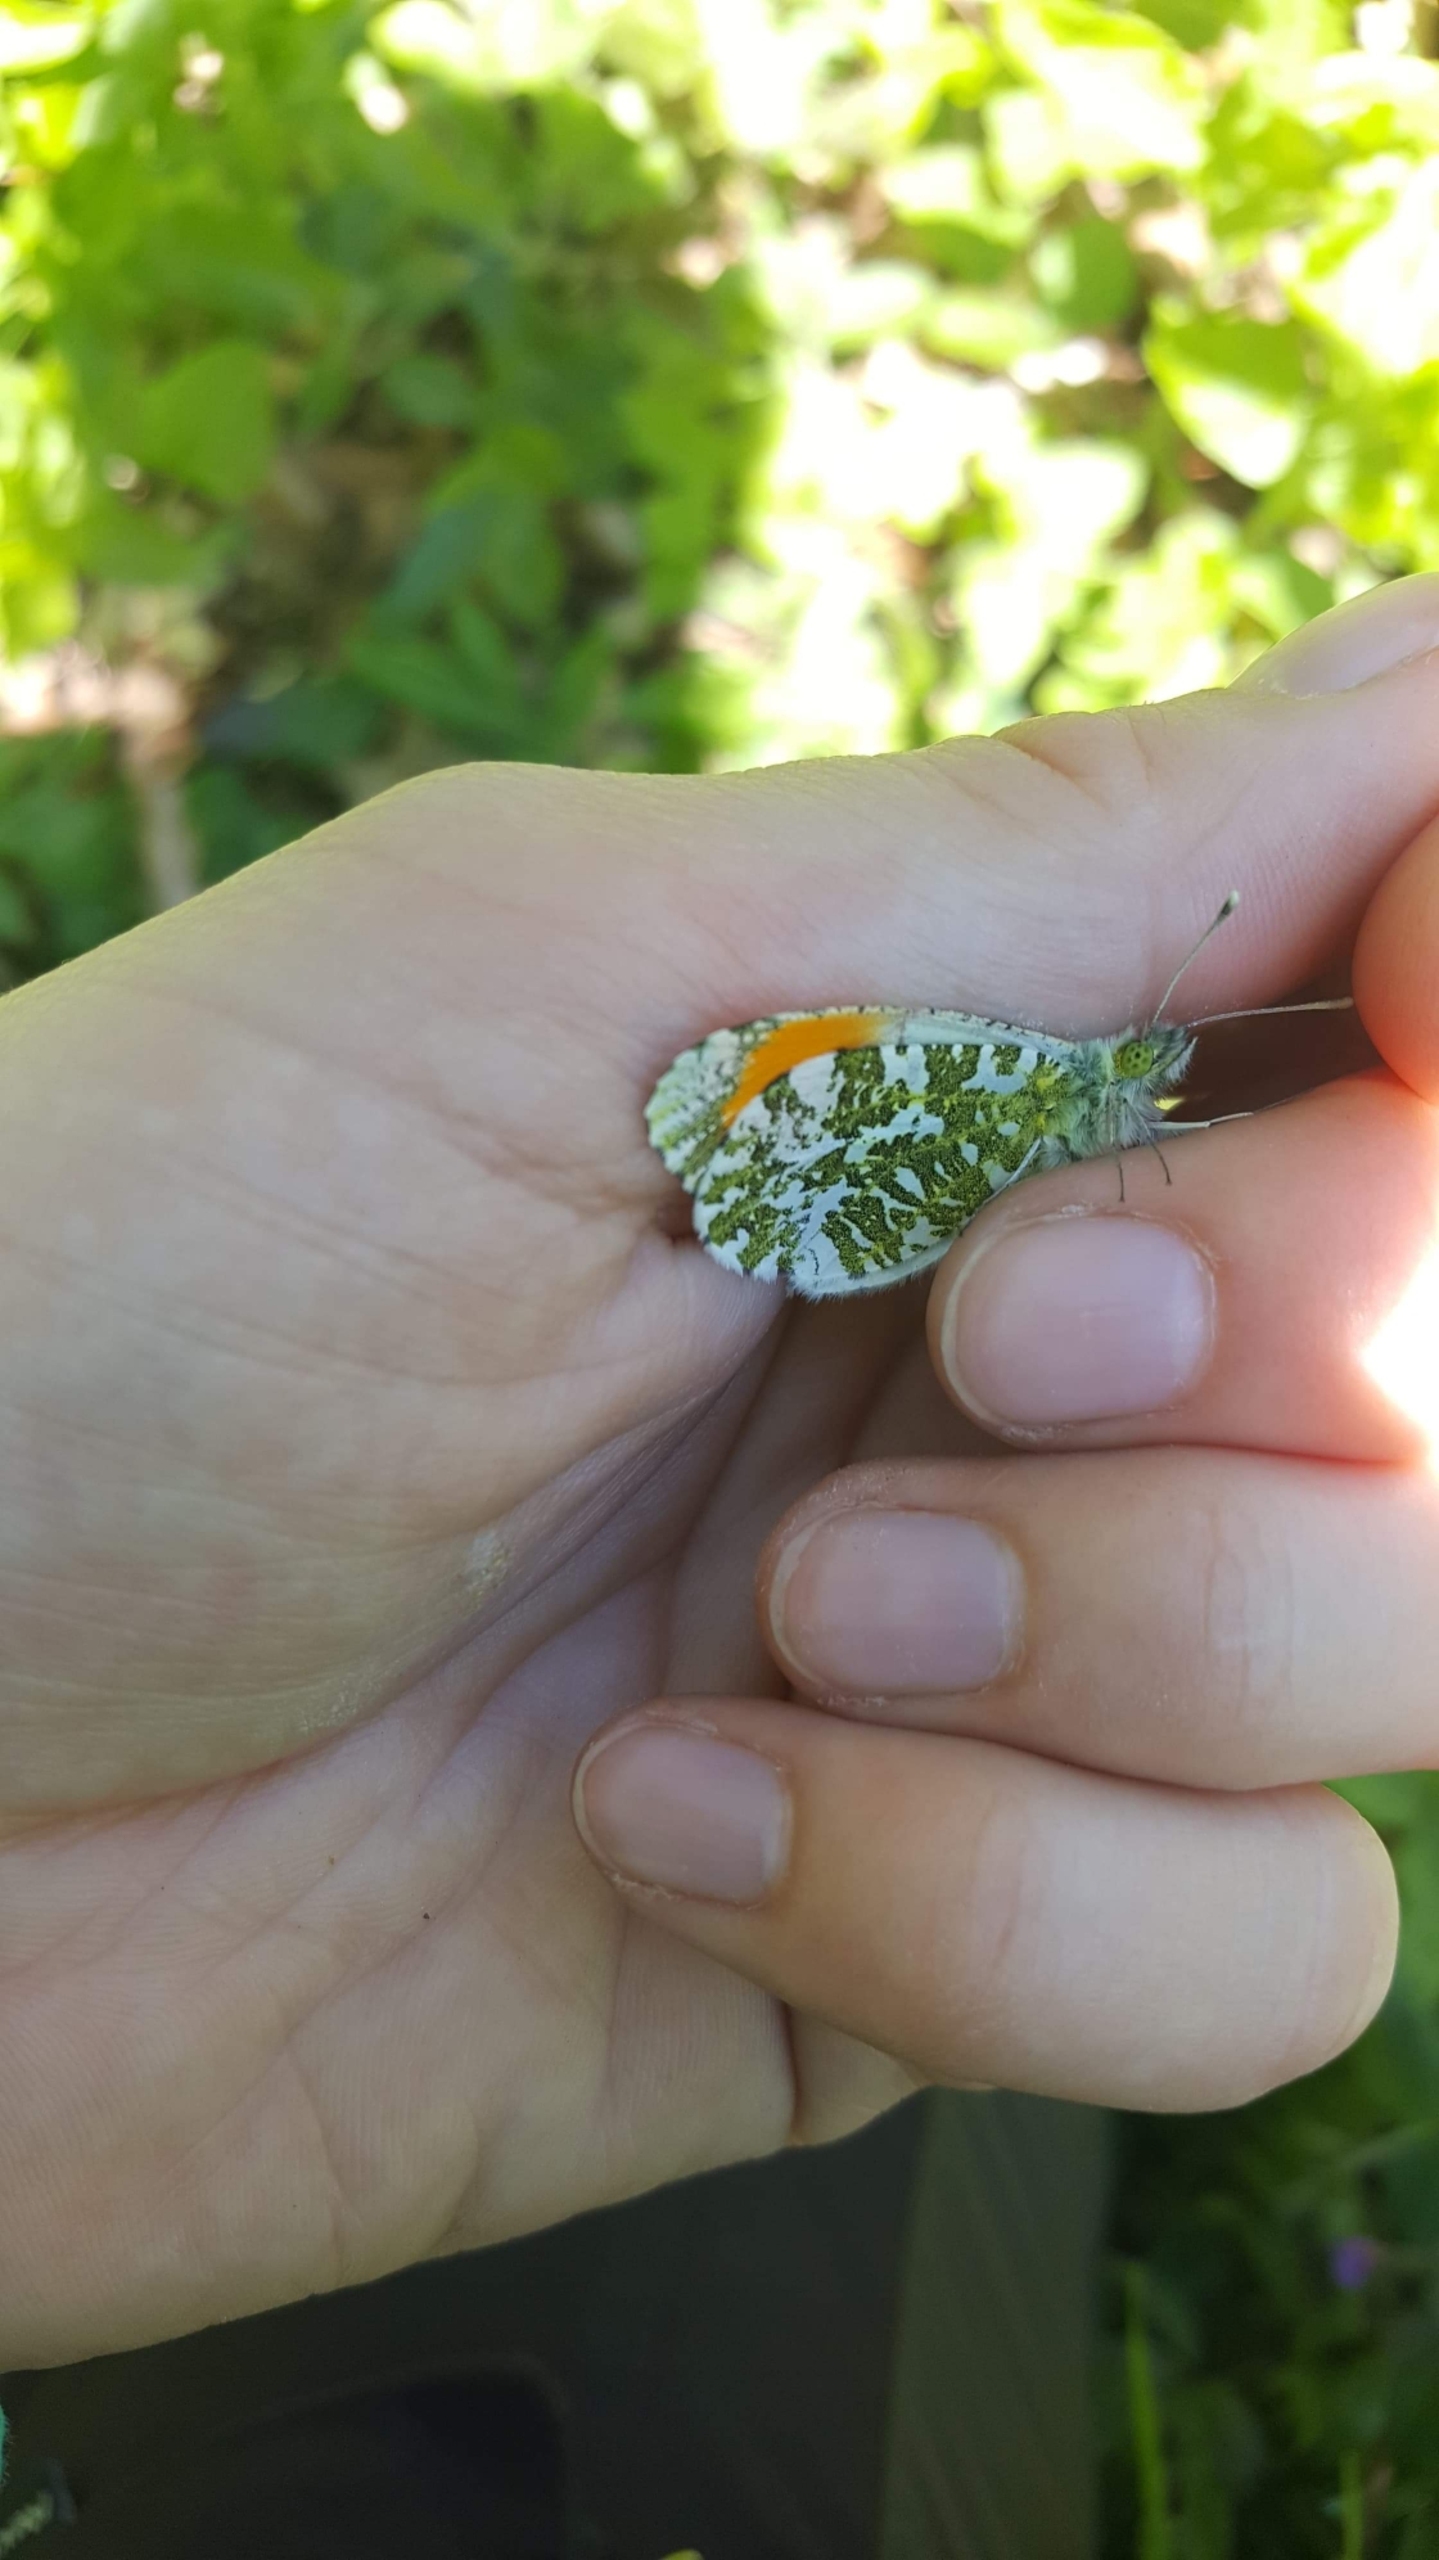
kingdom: Animalia
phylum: Arthropoda
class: Insecta
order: Lepidoptera
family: Pieridae
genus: Anthocharis
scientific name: Anthocharis cardamines
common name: Aurora
